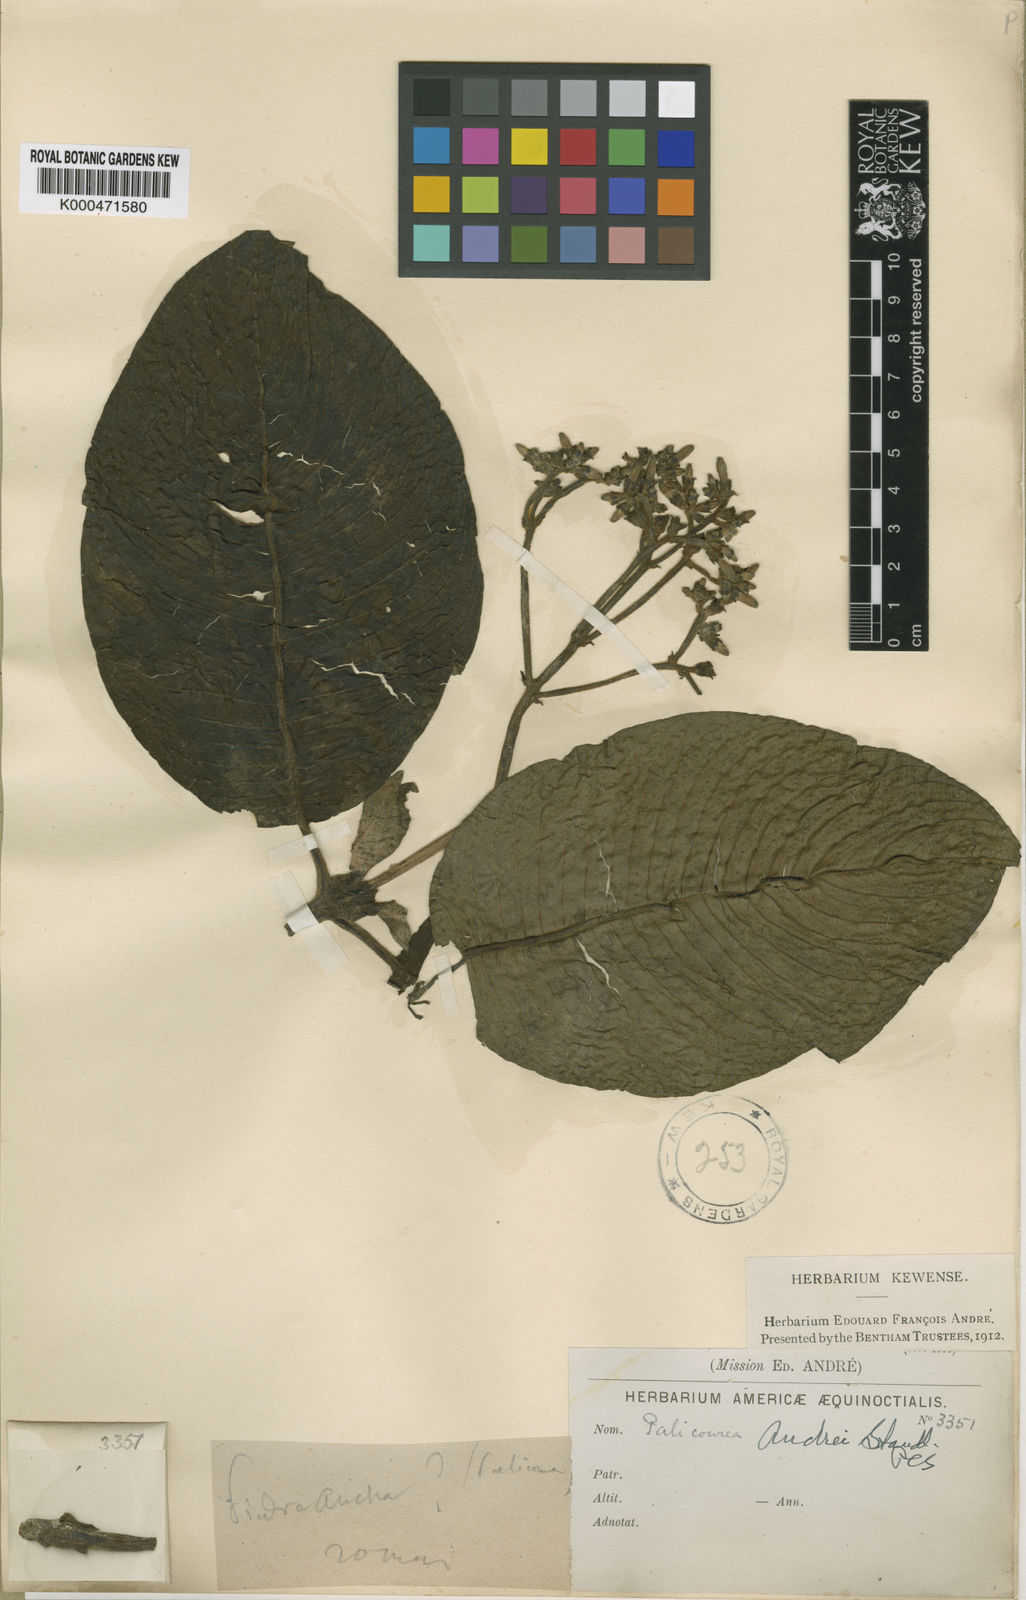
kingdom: Plantae
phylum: Tracheophyta
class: Magnoliopsida
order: Gentianales
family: Rubiaceae
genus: Palicourea
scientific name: Palicourea andrei
